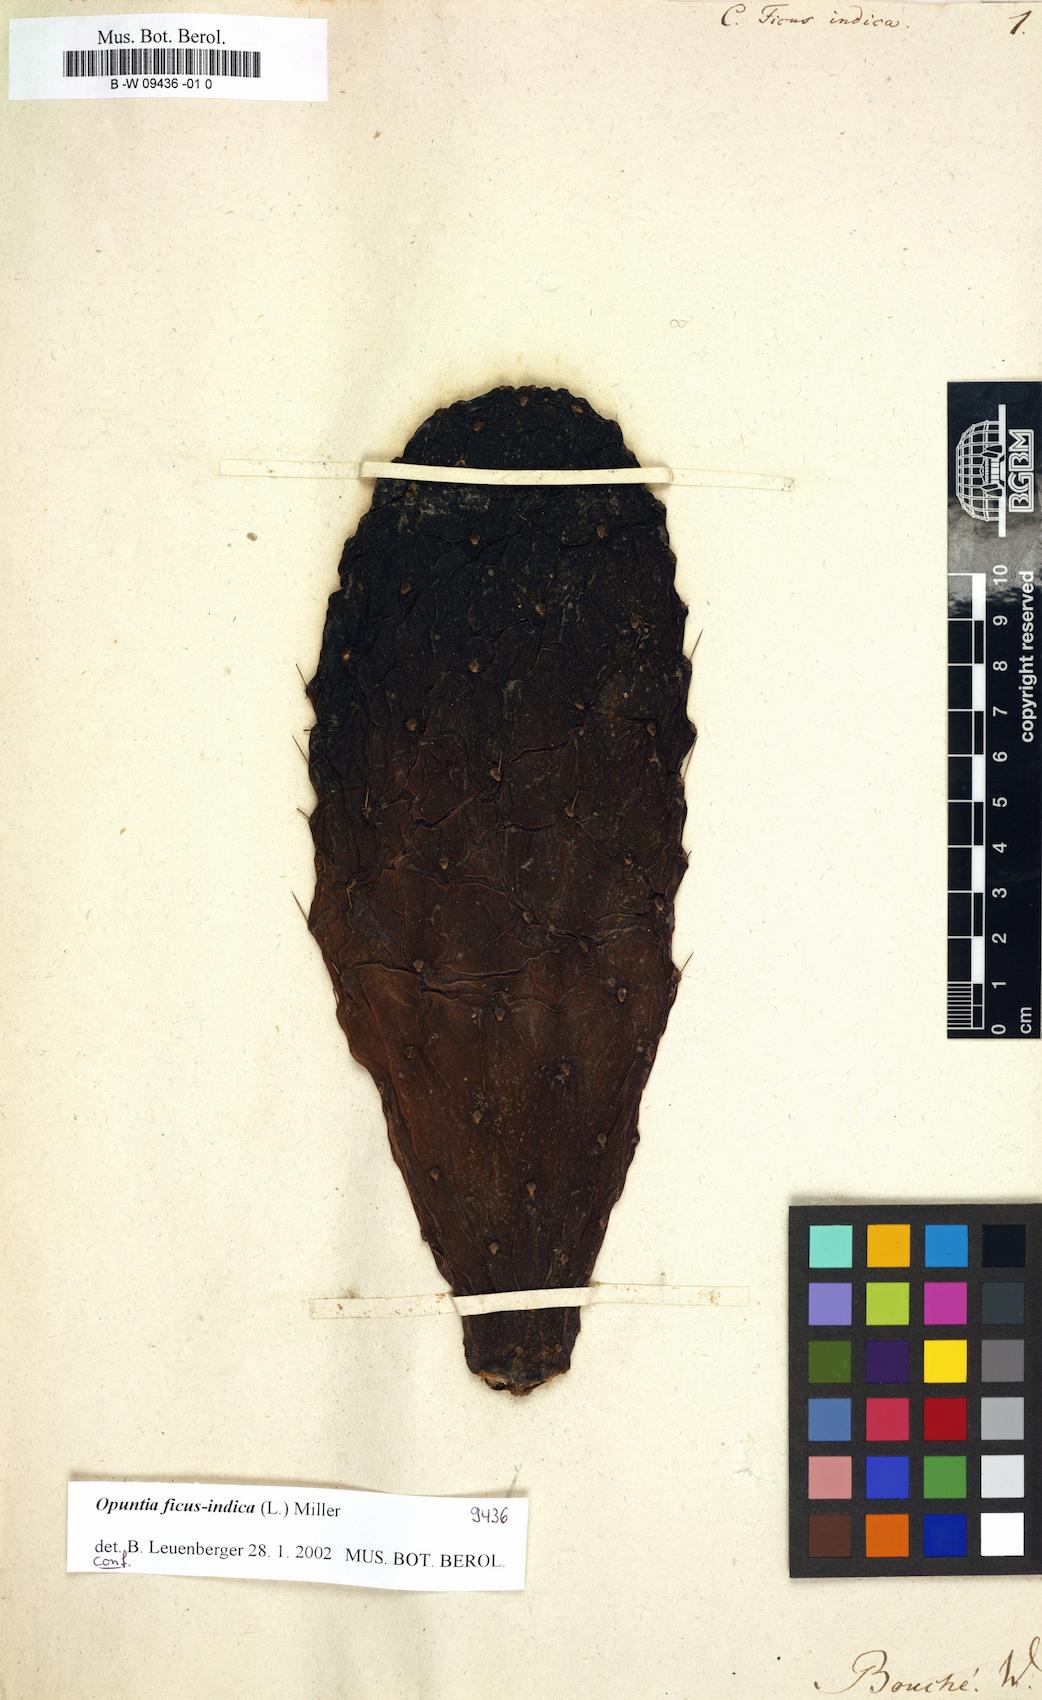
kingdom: Plantae
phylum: Tracheophyta
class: Magnoliopsida
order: Caryophyllales
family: Cactaceae
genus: Opuntia
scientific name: Opuntia ficus-indica
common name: Barbary fig
